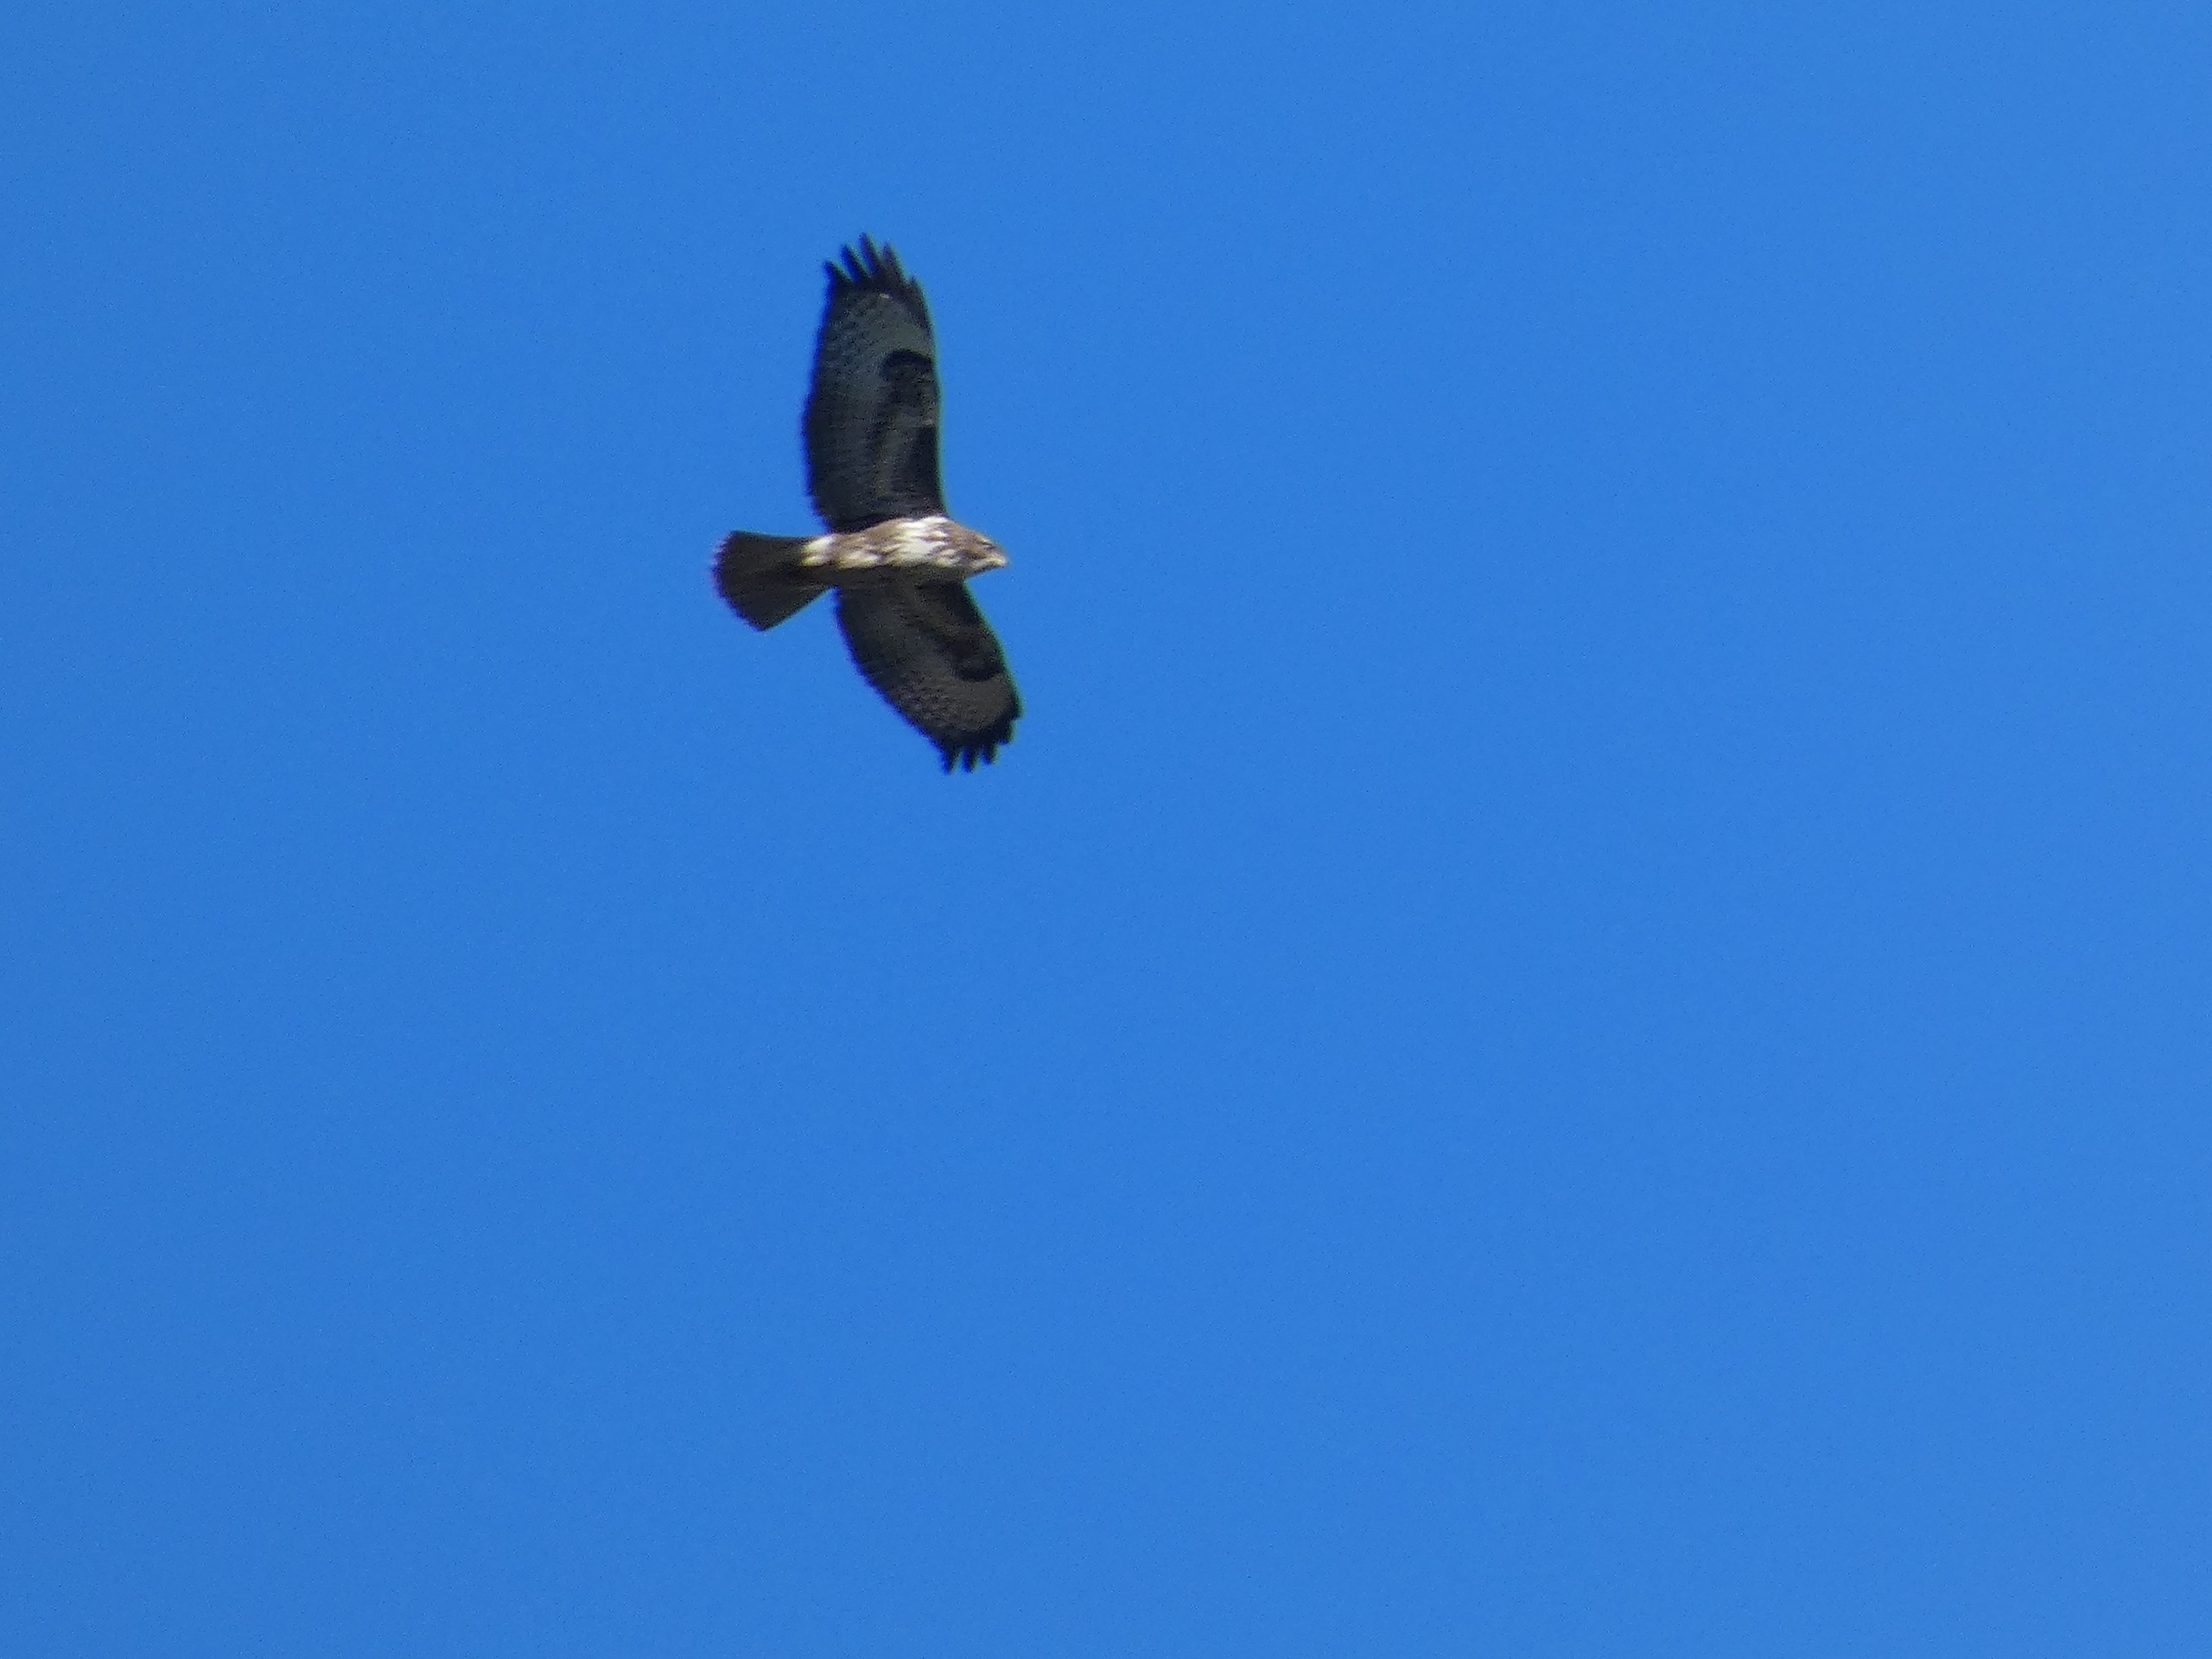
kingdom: Animalia
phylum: Chordata
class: Aves
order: Accipitriformes
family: Accipitridae
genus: Buteo
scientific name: Buteo buteo
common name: Musvåge
